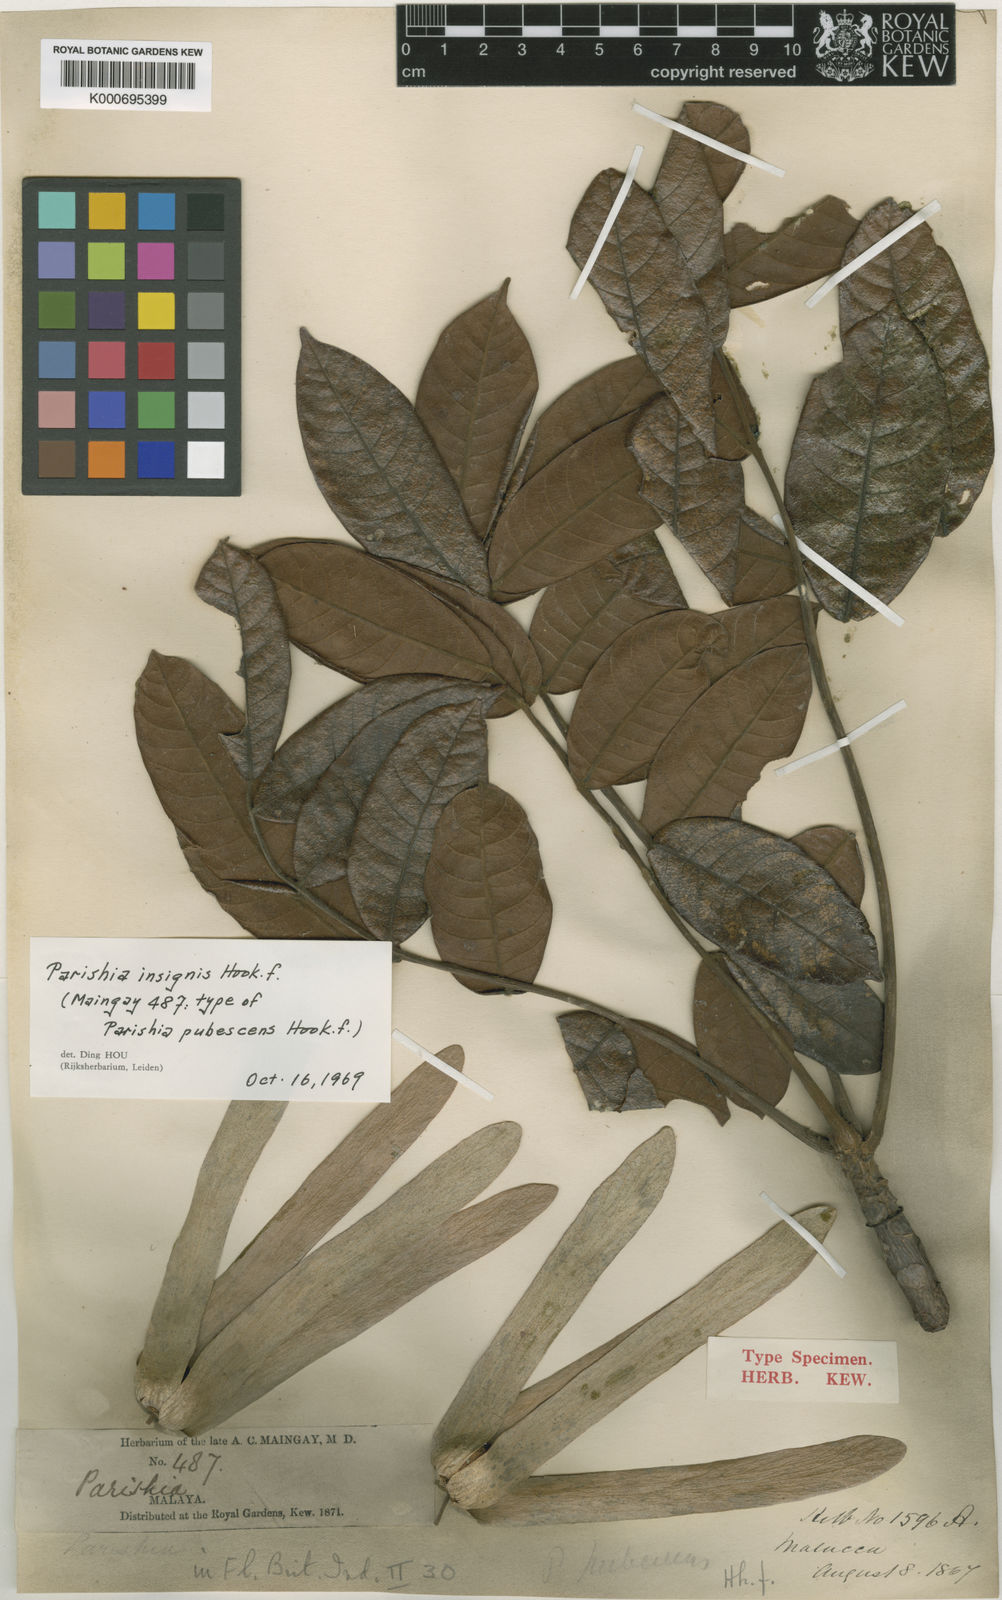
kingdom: Plantae
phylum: Tracheophyta
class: Magnoliopsida
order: Sapindales
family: Anacardiaceae
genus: Parishia
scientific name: Parishia insignis
